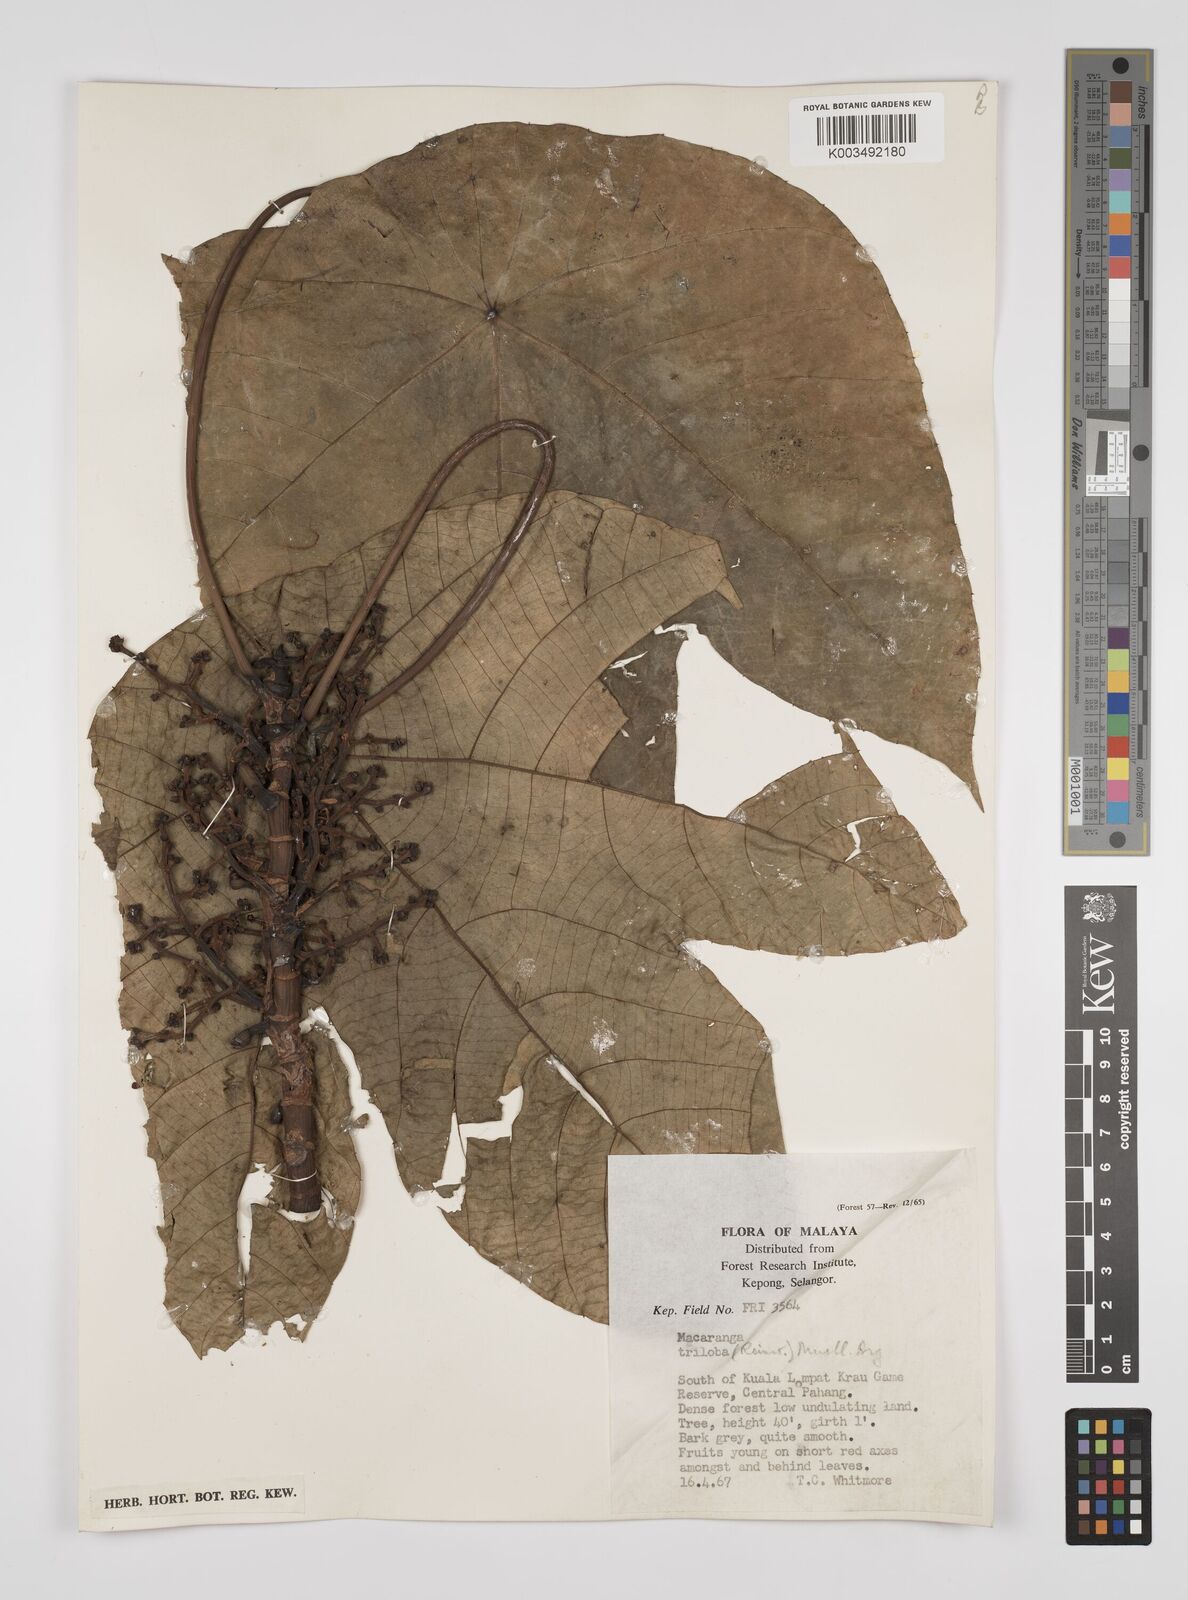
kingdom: Plantae
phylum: Tracheophyta
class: Magnoliopsida
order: Malpighiales
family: Euphorbiaceae
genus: Macaranga
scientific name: Macaranga triloba
